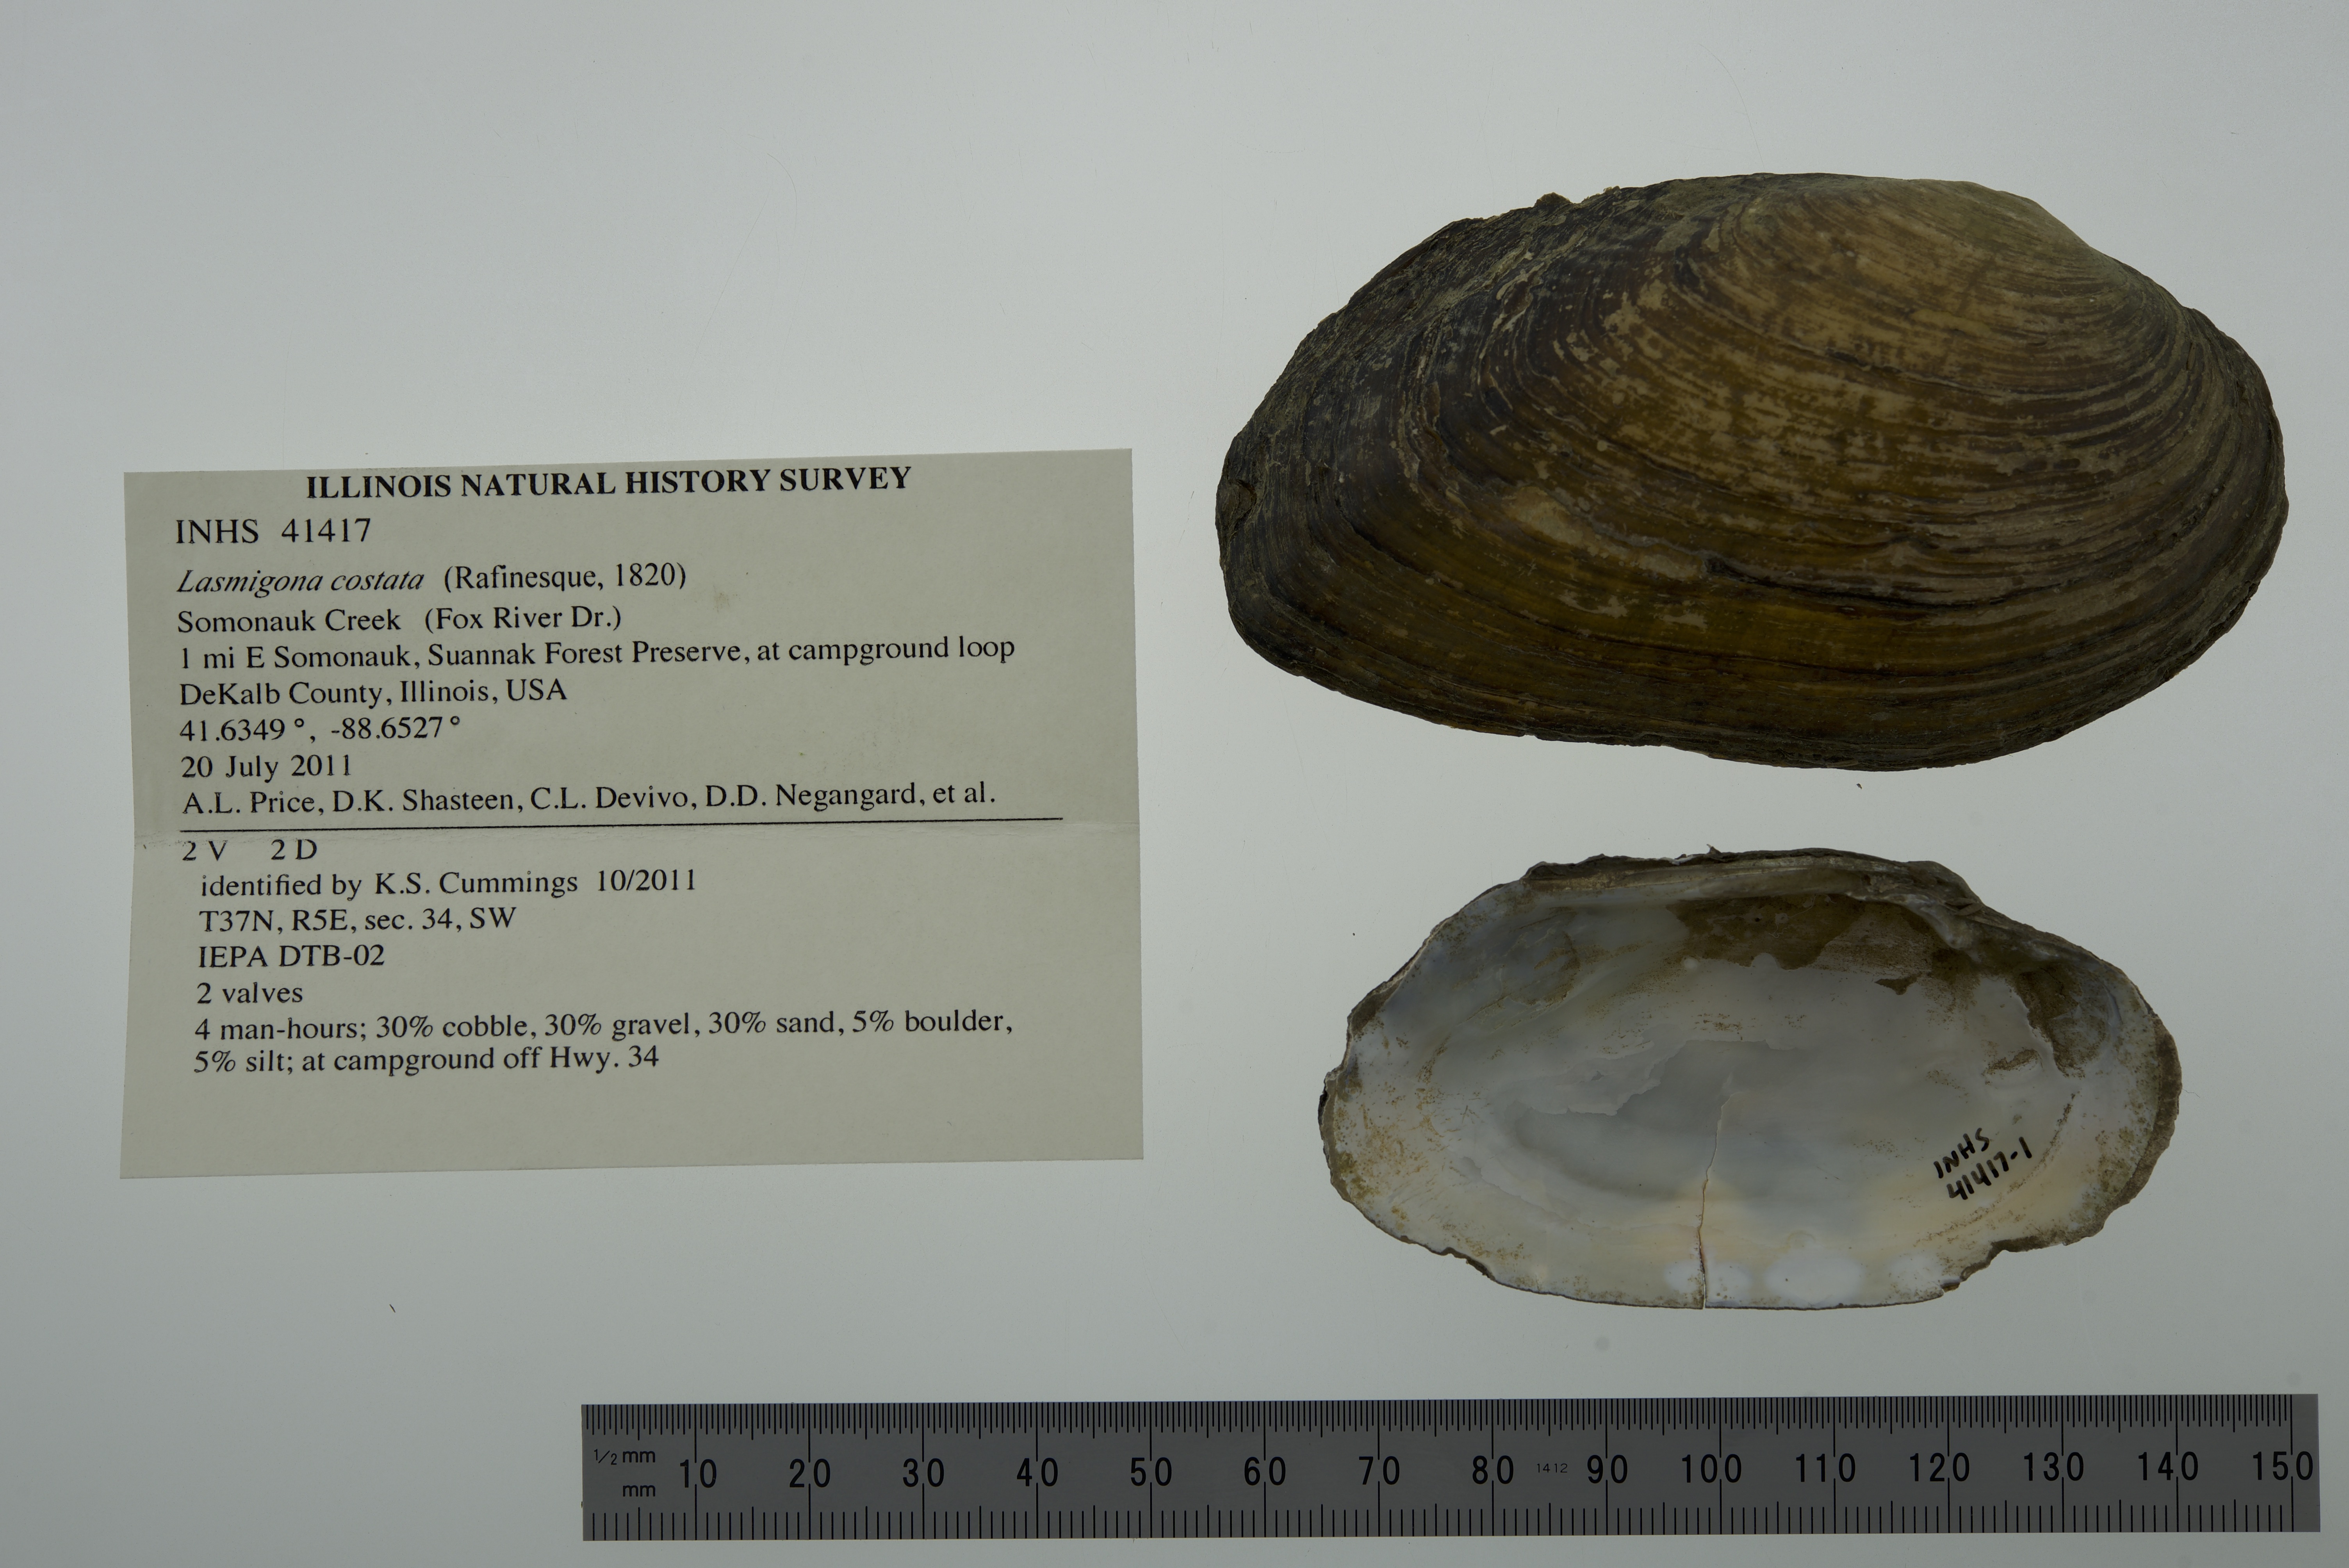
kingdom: Animalia
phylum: Mollusca
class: Bivalvia
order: Unionida
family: Unionidae
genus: Lasmigona
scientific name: Lasmigona costata
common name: Flutedshell
